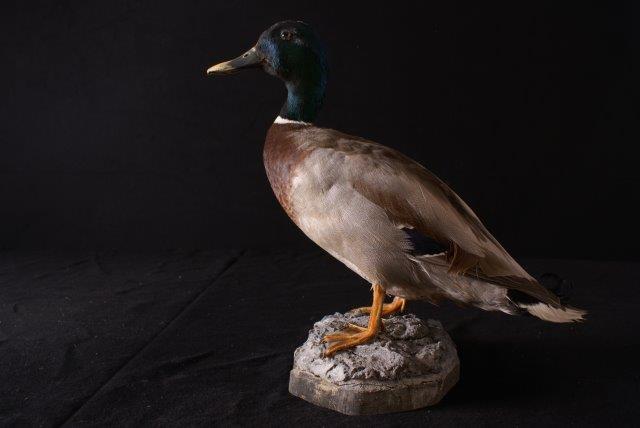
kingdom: Animalia
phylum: Chordata
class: Aves
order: Anseriformes
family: Anatidae
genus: Anas
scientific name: Anas platyrhynchos
